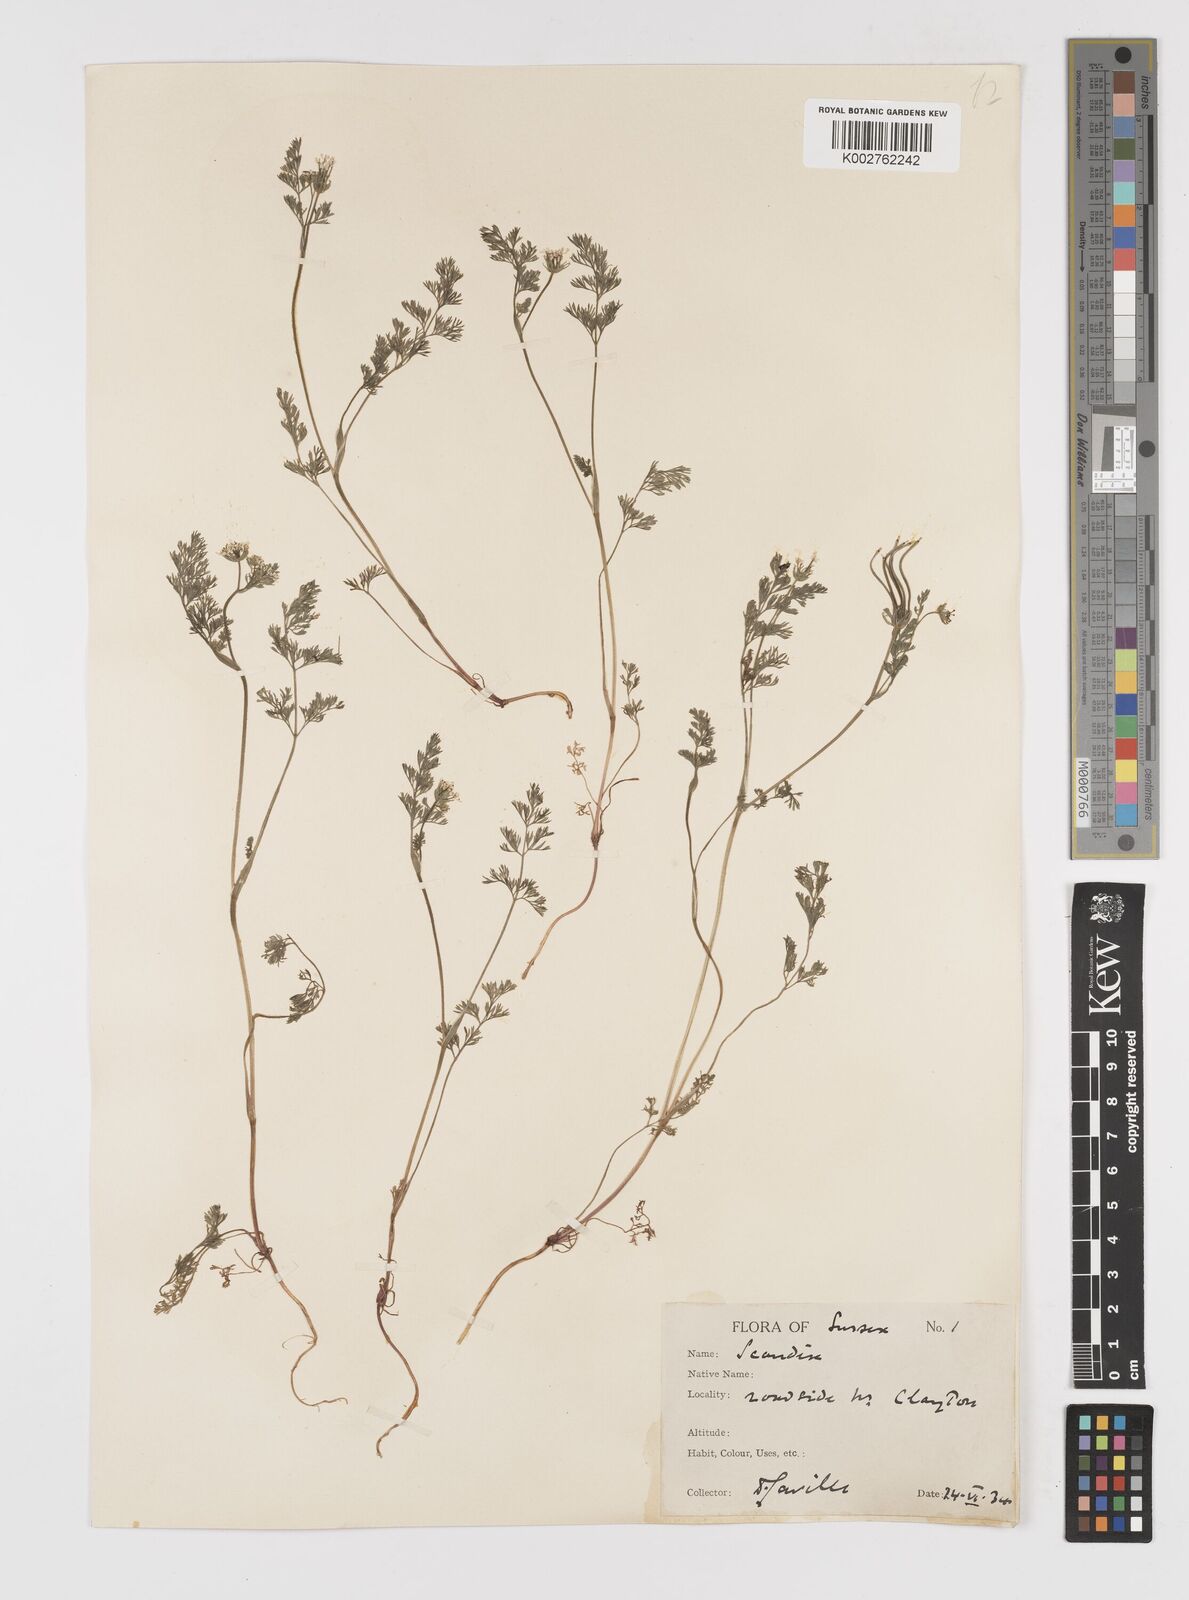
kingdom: Plantae
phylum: Tracheophyta
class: Magnoliopsida
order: Apiales
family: Apiaceae
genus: Scandix
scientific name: Scandix pecten-veneris
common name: Shepherd's-needle
